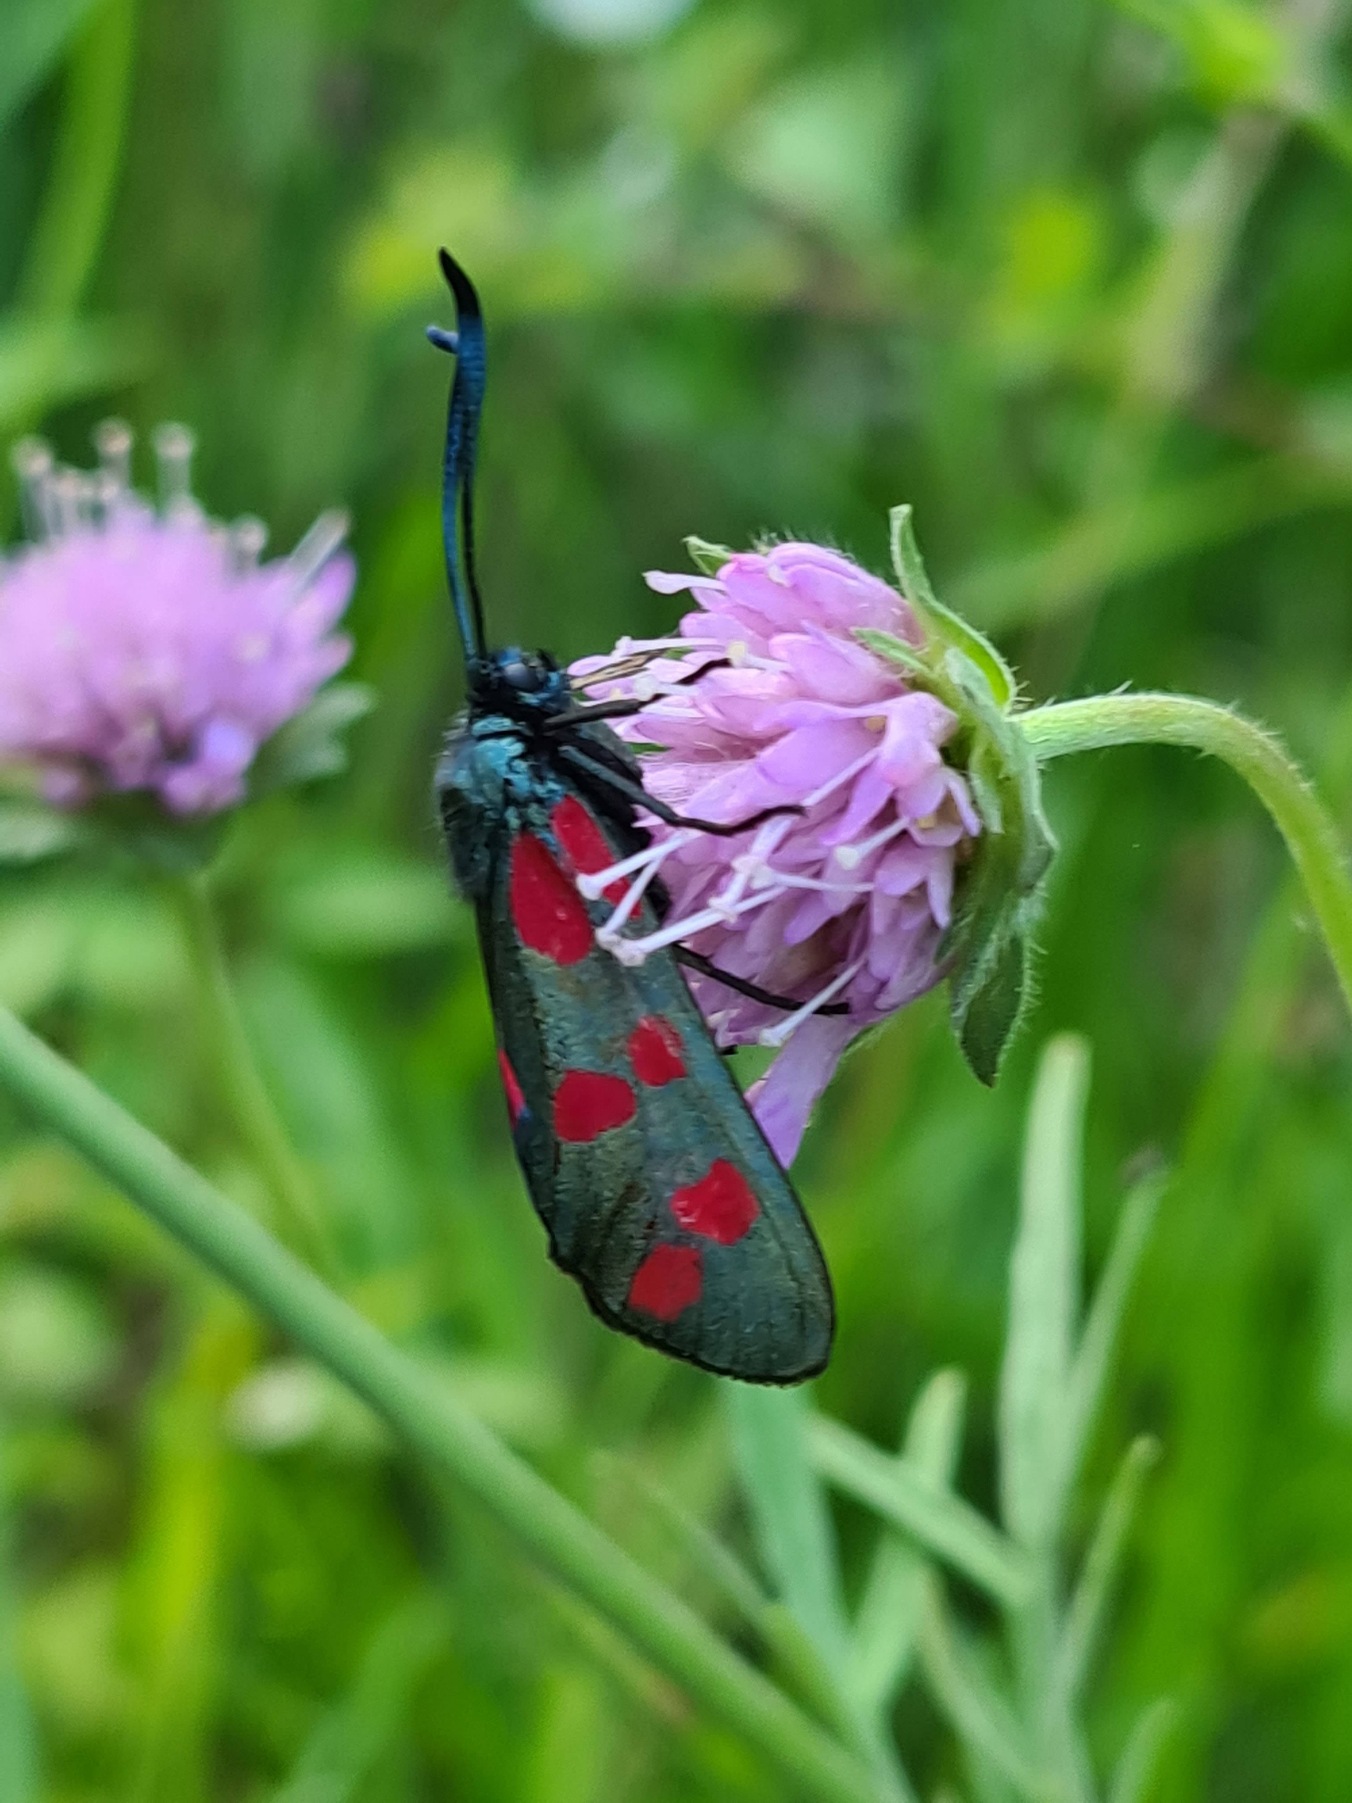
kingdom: Animalia
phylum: Arthropoda
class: Insecta
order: Lepidoptera
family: Zygaenidae
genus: Zygaena
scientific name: Zygaena filipendulae
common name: Seksplettet køllesværmer
